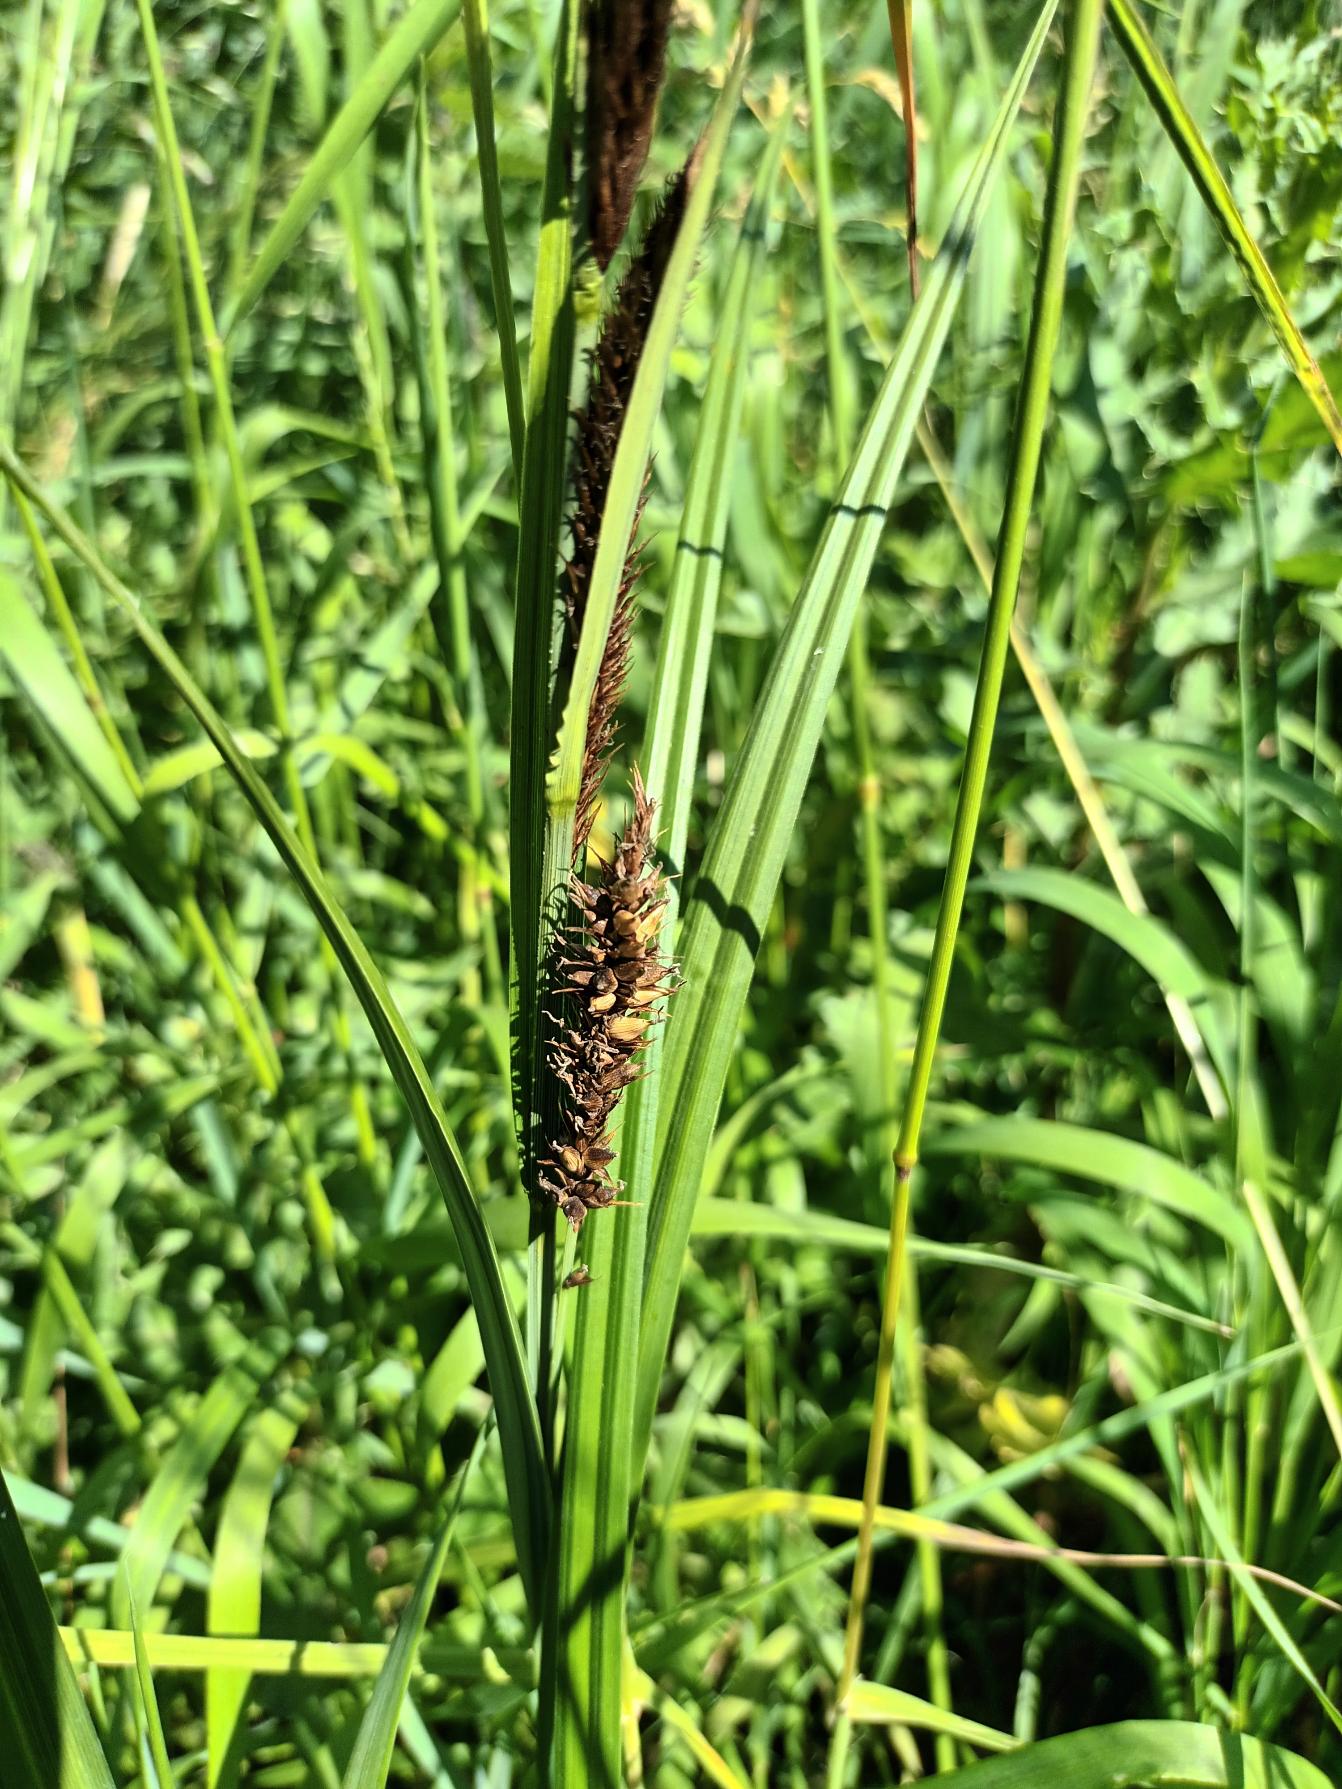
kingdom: Plantae
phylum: Tracheophyta
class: Liliopsida
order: Poales
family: Cyperaceae
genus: Carex
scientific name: Carex riparia
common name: Tykakset star
